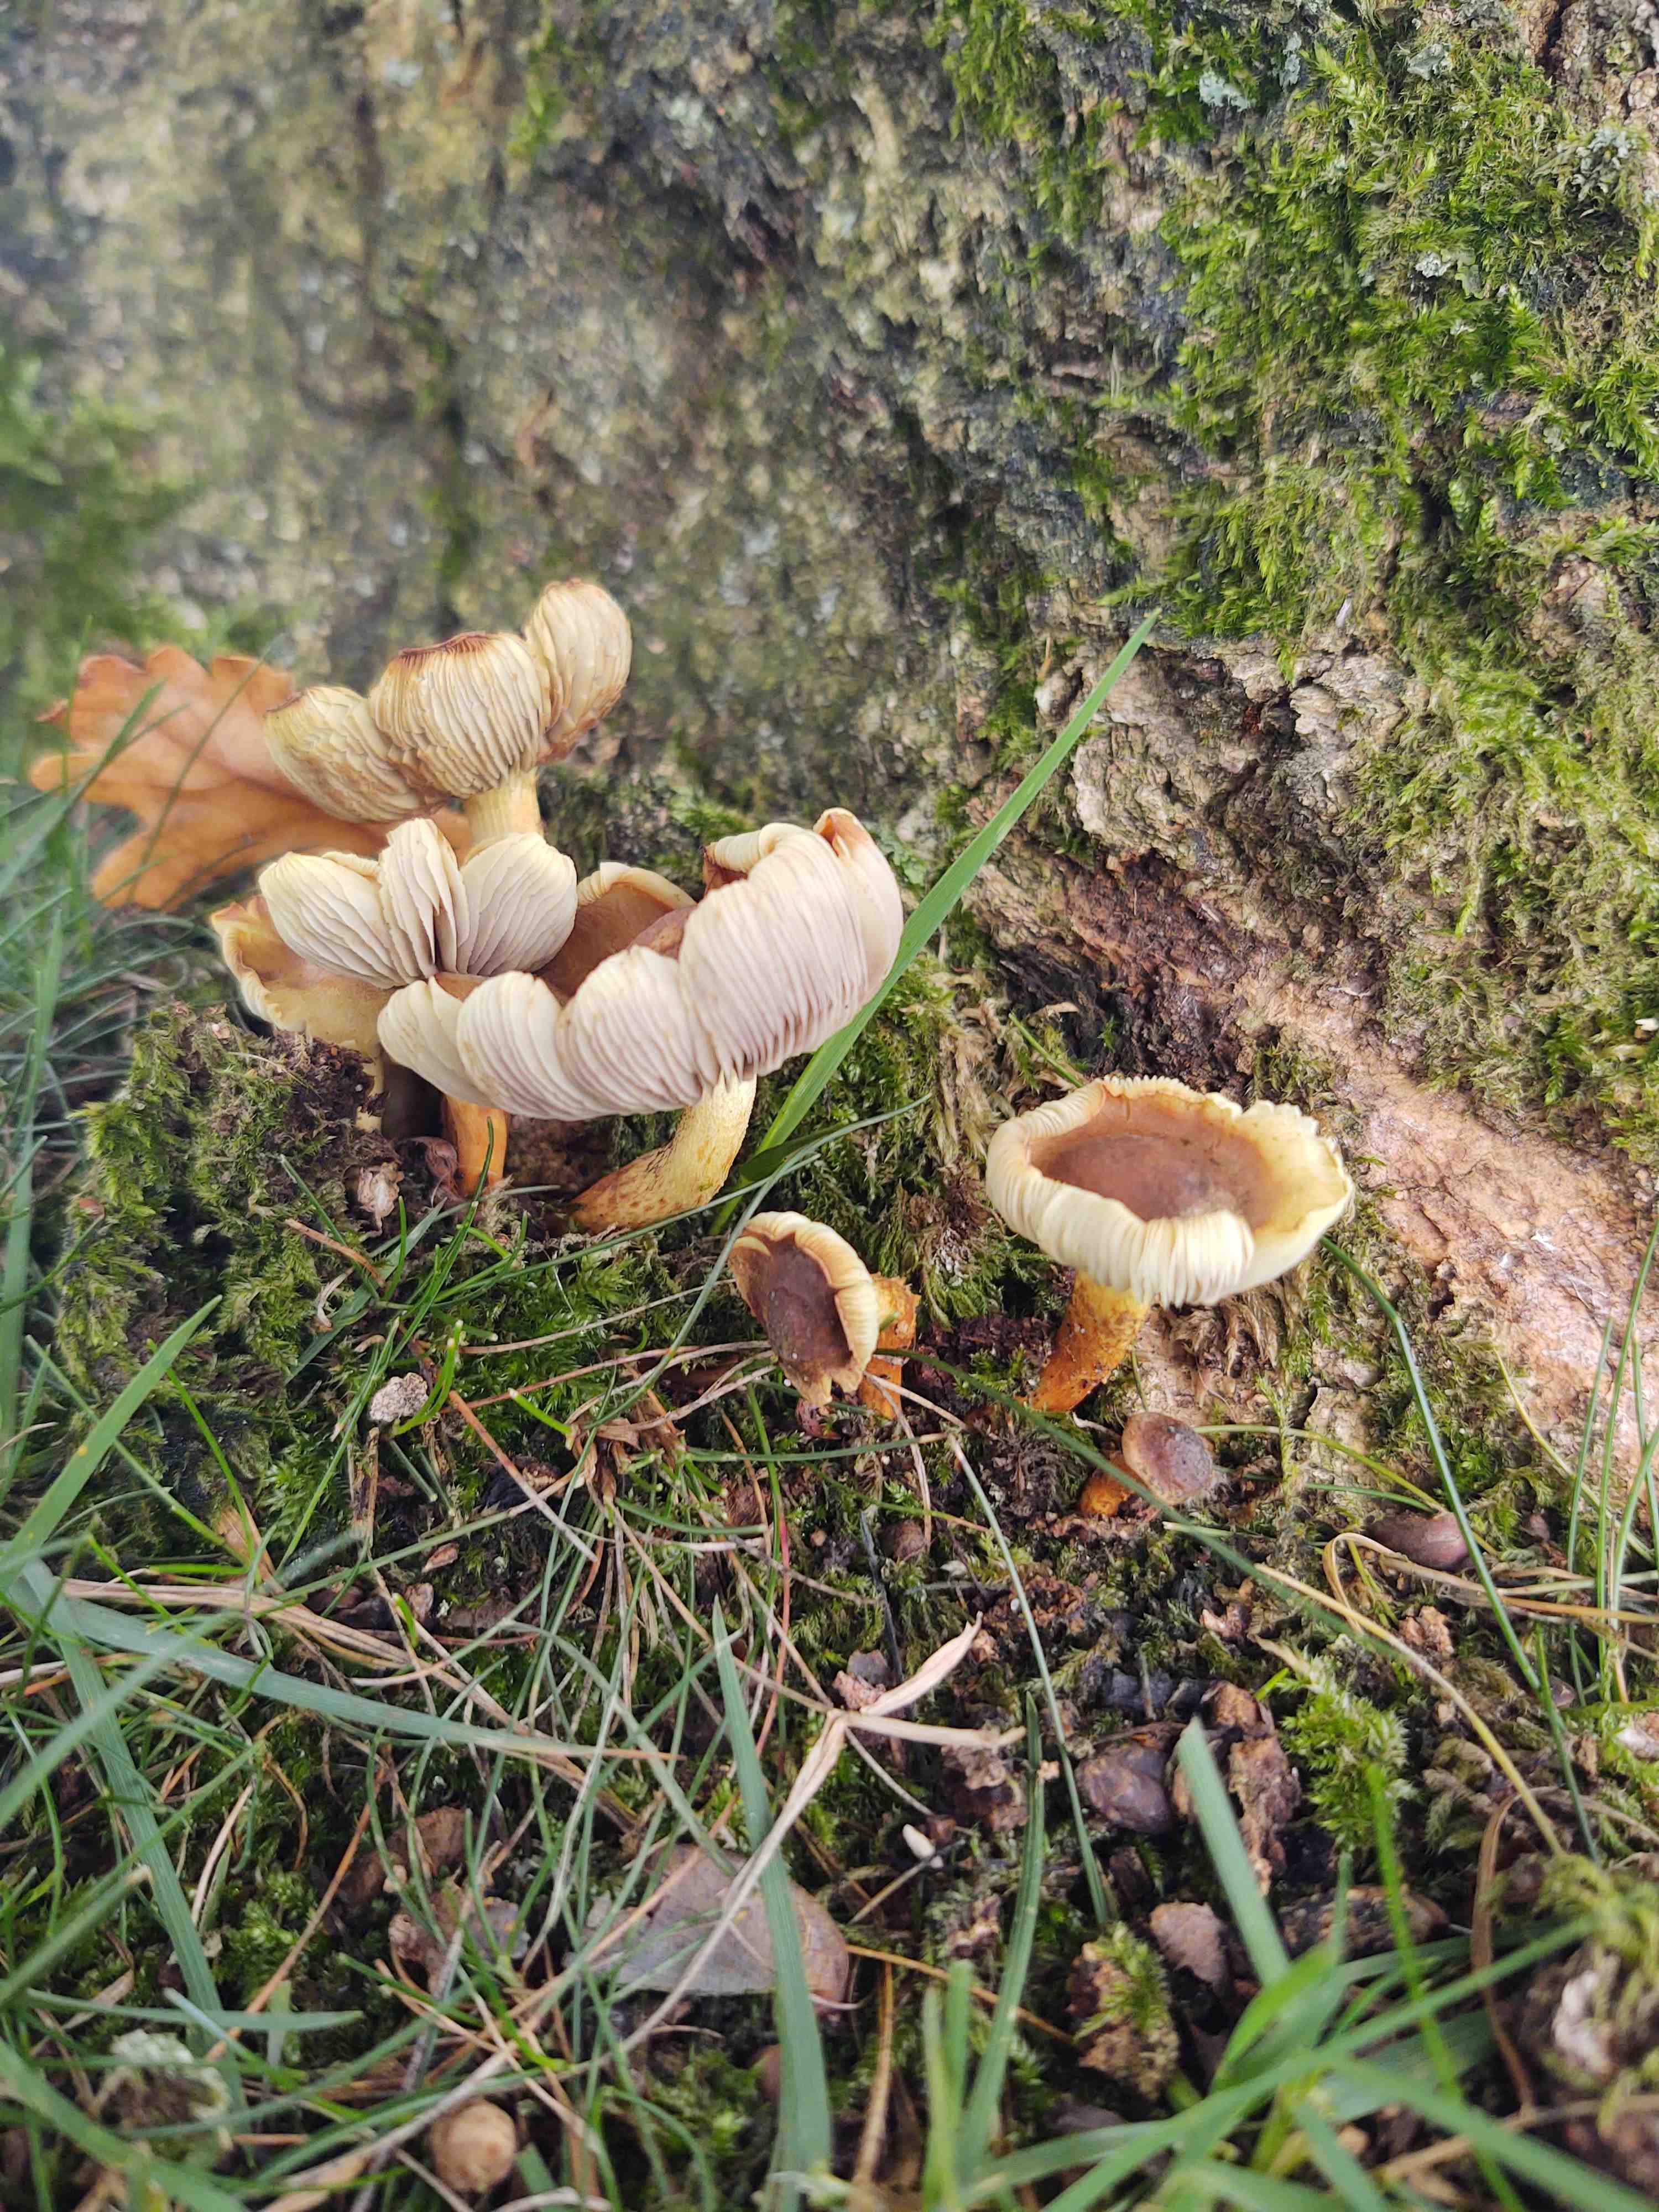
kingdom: Fungi
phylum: Basidiomycota
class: Agaricomycetes
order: Agaricales
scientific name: Agaricales
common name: champignonordenen
